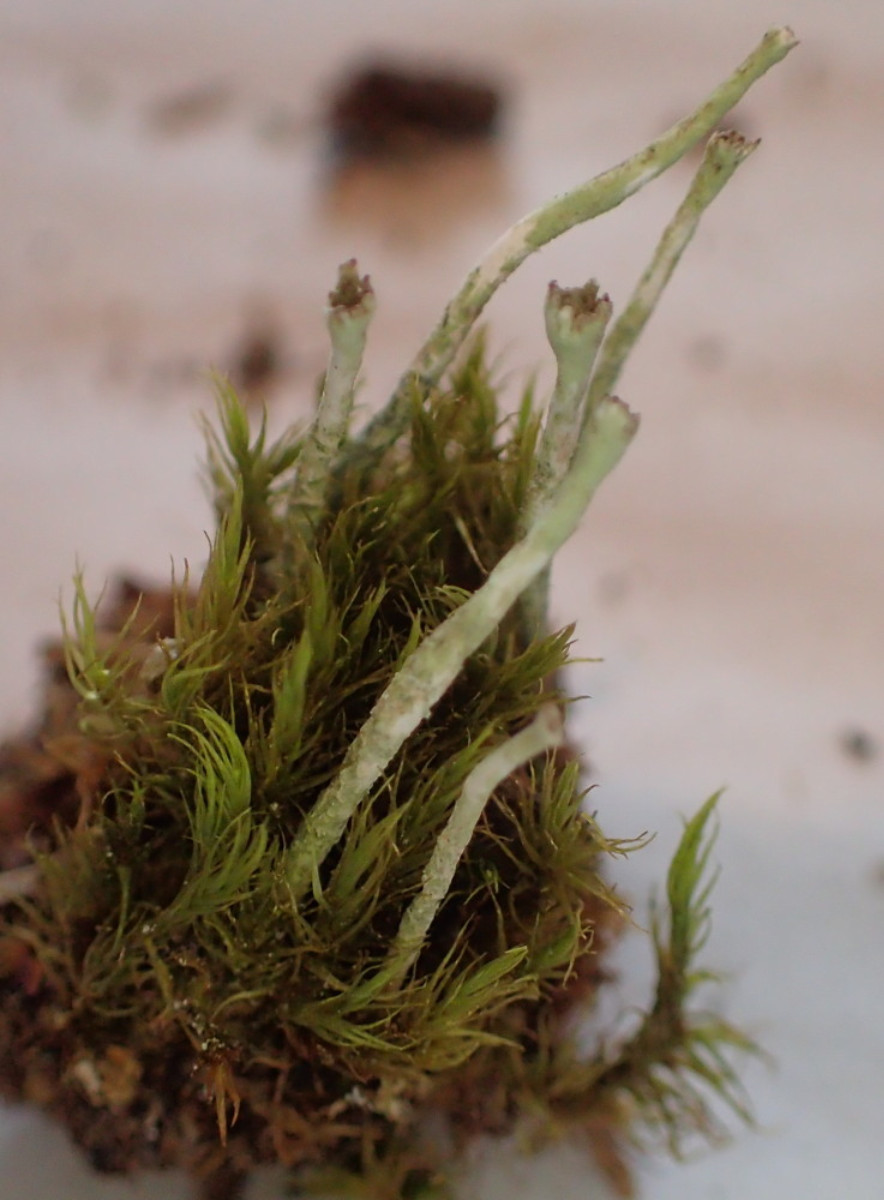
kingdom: Fungi
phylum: Ascomycota
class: Lecanoromycetes
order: Lecanorales
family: Cladoniaceae
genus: Cladonia
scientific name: Cladonia ochrochlora
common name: stød-bægerlav
